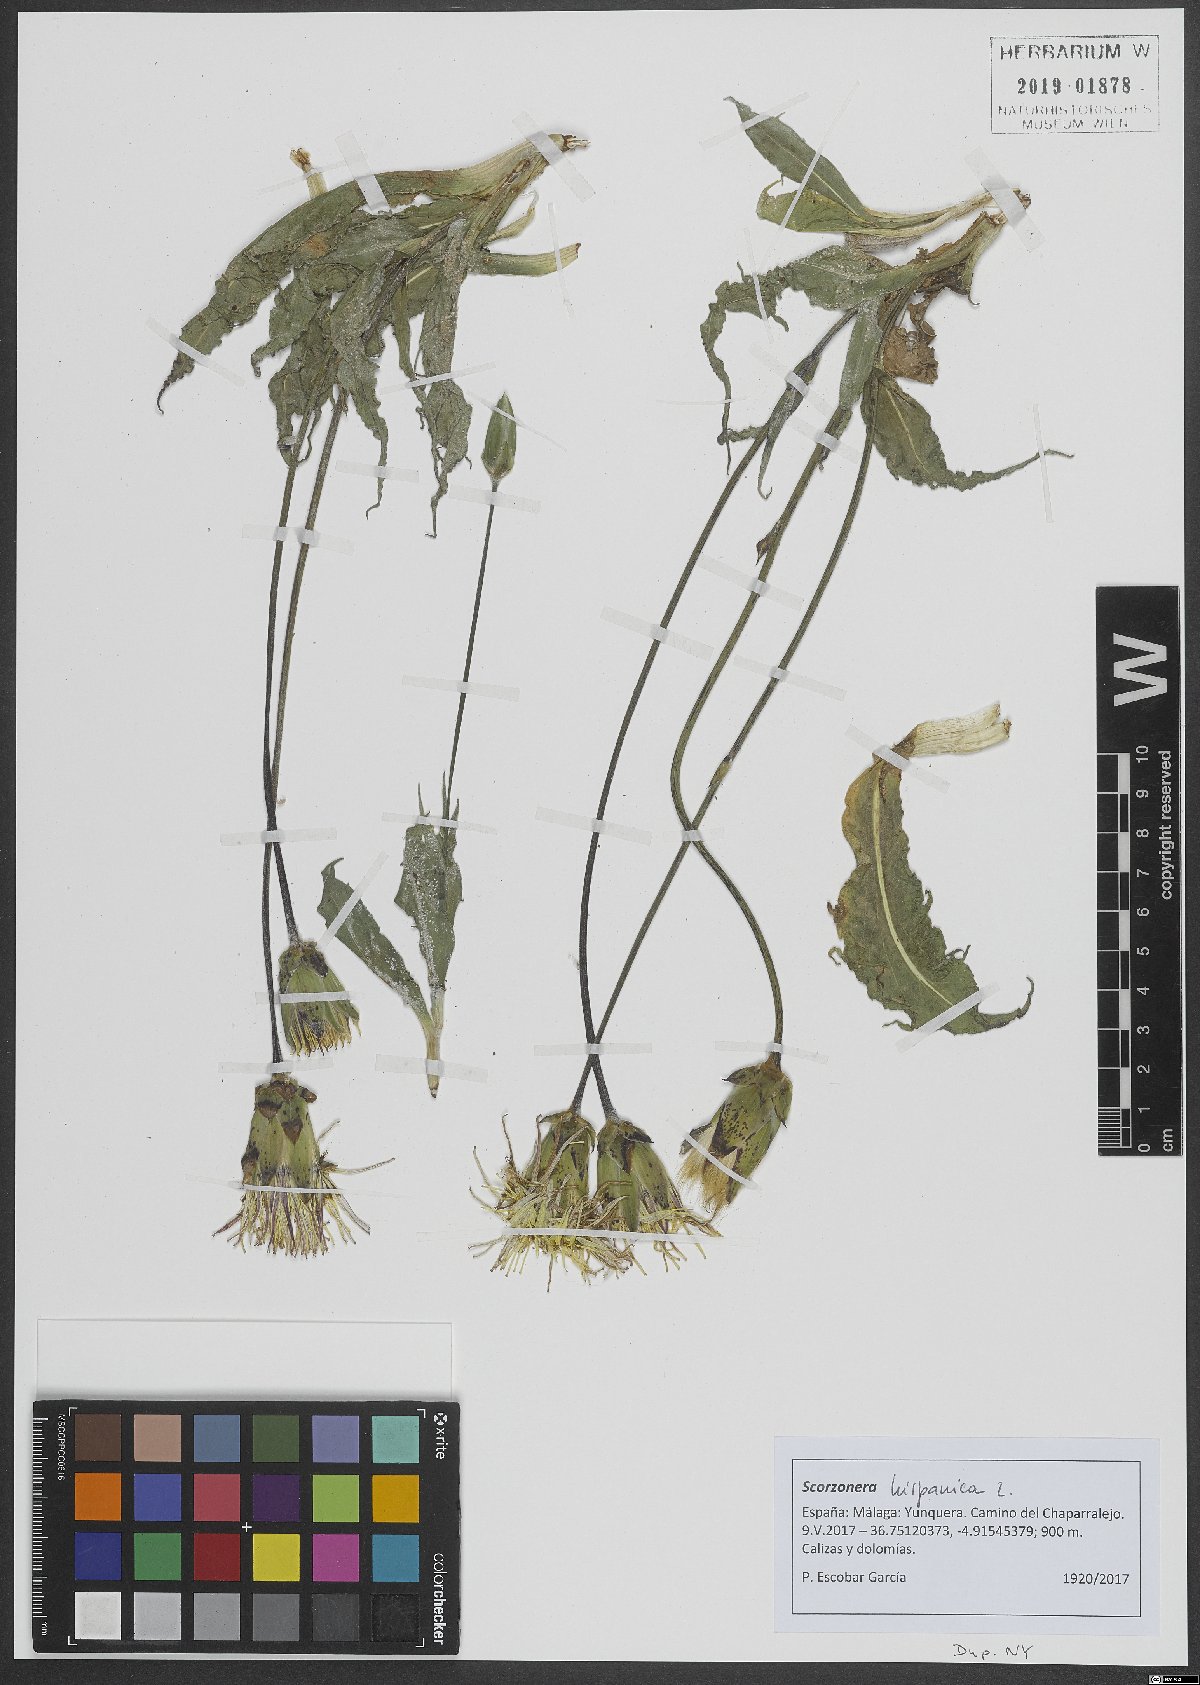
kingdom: Plantae
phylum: Tracheophyta
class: Magnoliopsida
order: Asterales
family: Asteraceae
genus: Pseudopodospermum
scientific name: Pseudopodospermum hispanicum
